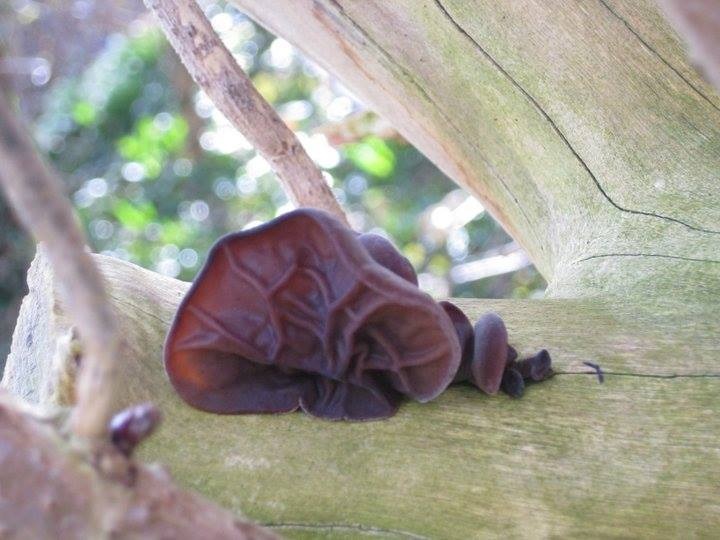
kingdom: Fungi
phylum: Basidiomycota
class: Agaricomycetes
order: Auriculariales
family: Auriculariaceae
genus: Auricularia
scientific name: Auricularia auricula-judae
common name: Almindelig judasøre
